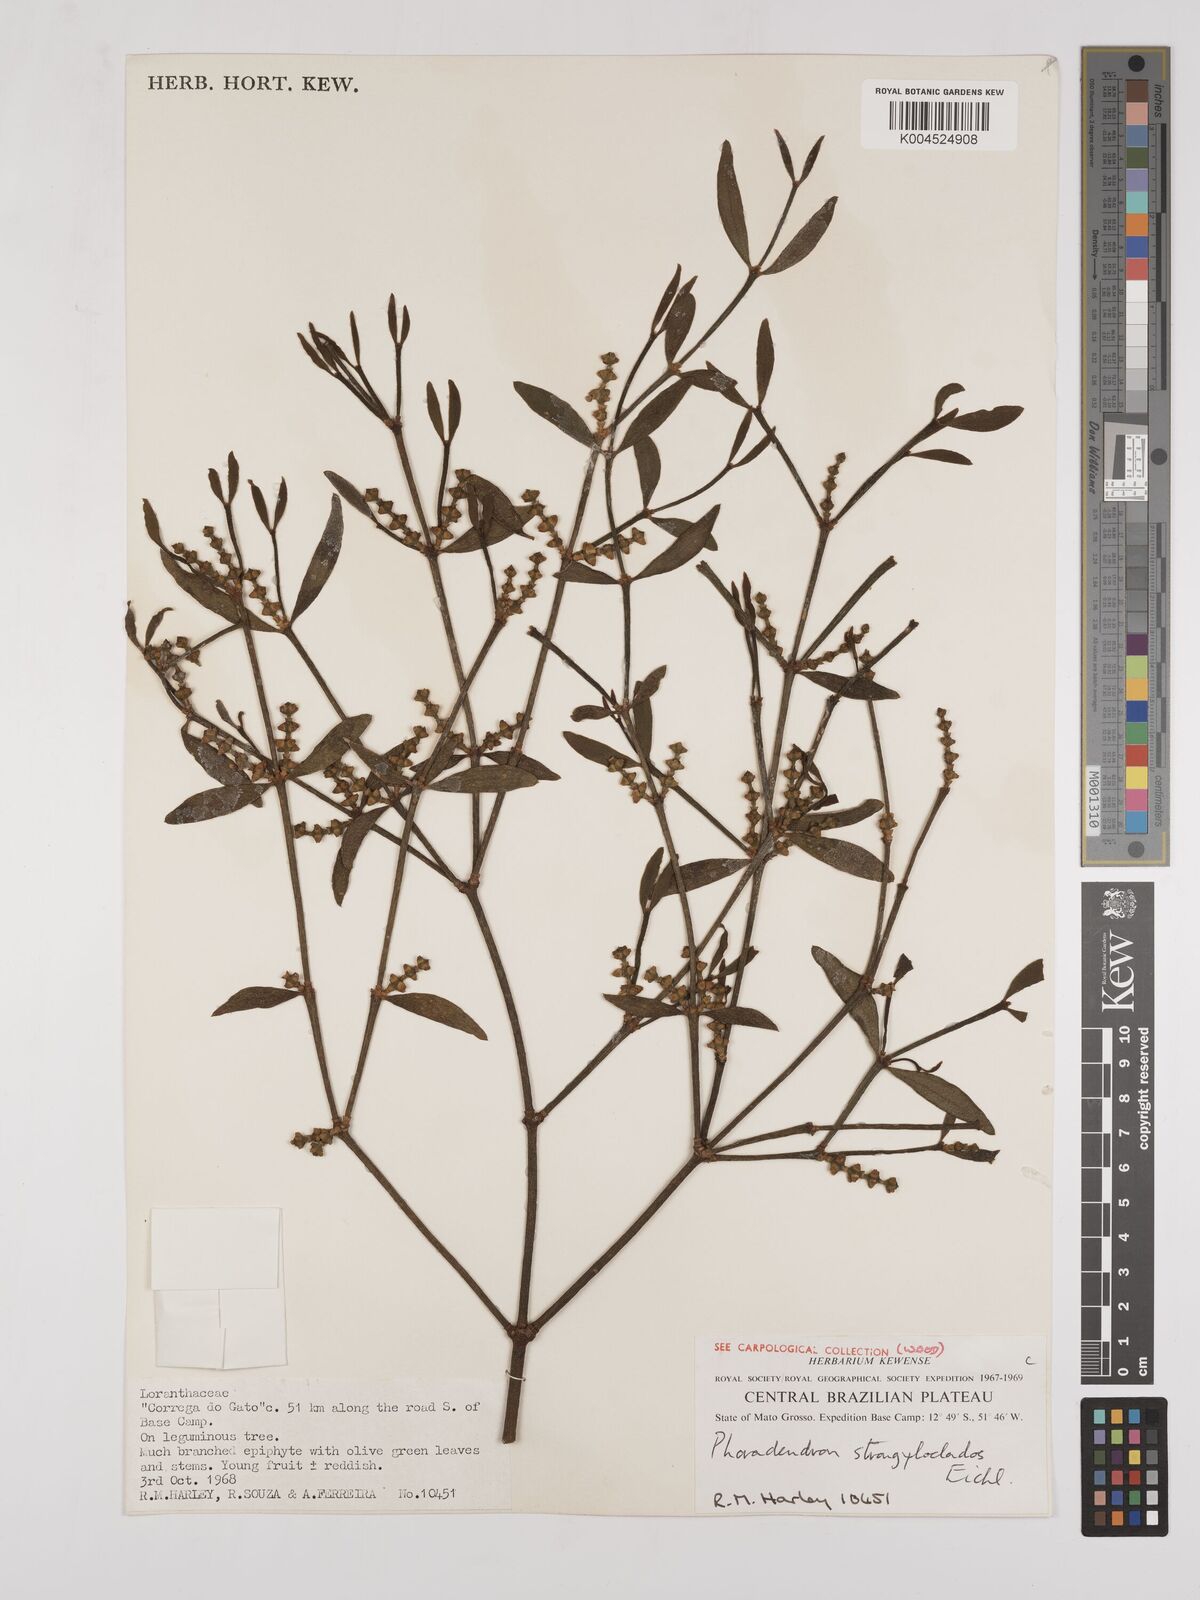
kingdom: Plantae
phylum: Tracheophyta
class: Magnoliopsida
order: Santalales
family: Viscaceae
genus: Phoradendron
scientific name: Phoradendron strongyloclados
